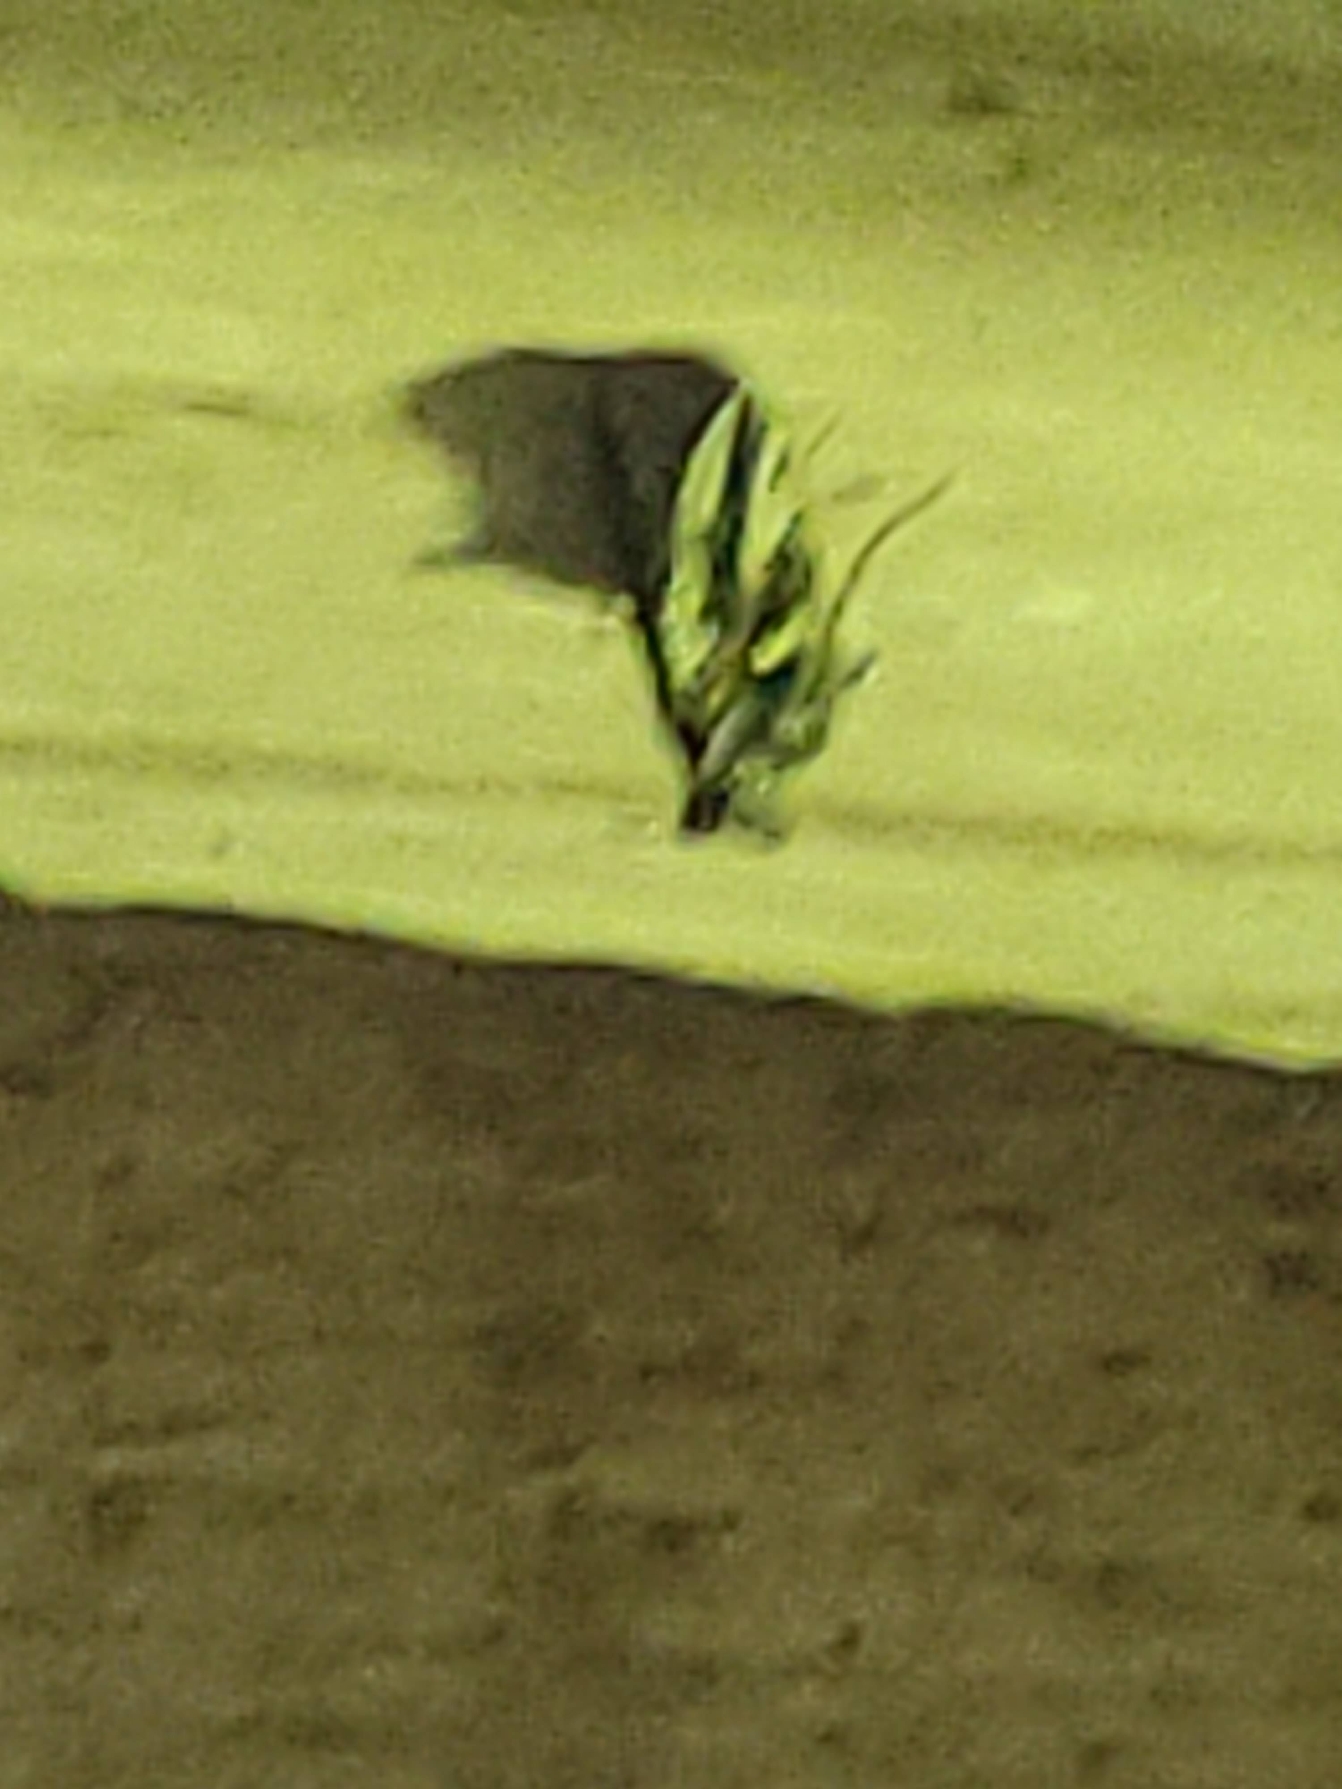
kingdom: Animalia
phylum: Arthropoda
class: Insecta
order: Lepidoptera
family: Noctuidae
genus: Autographa
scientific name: Autographa gamma
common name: Gammaugle
